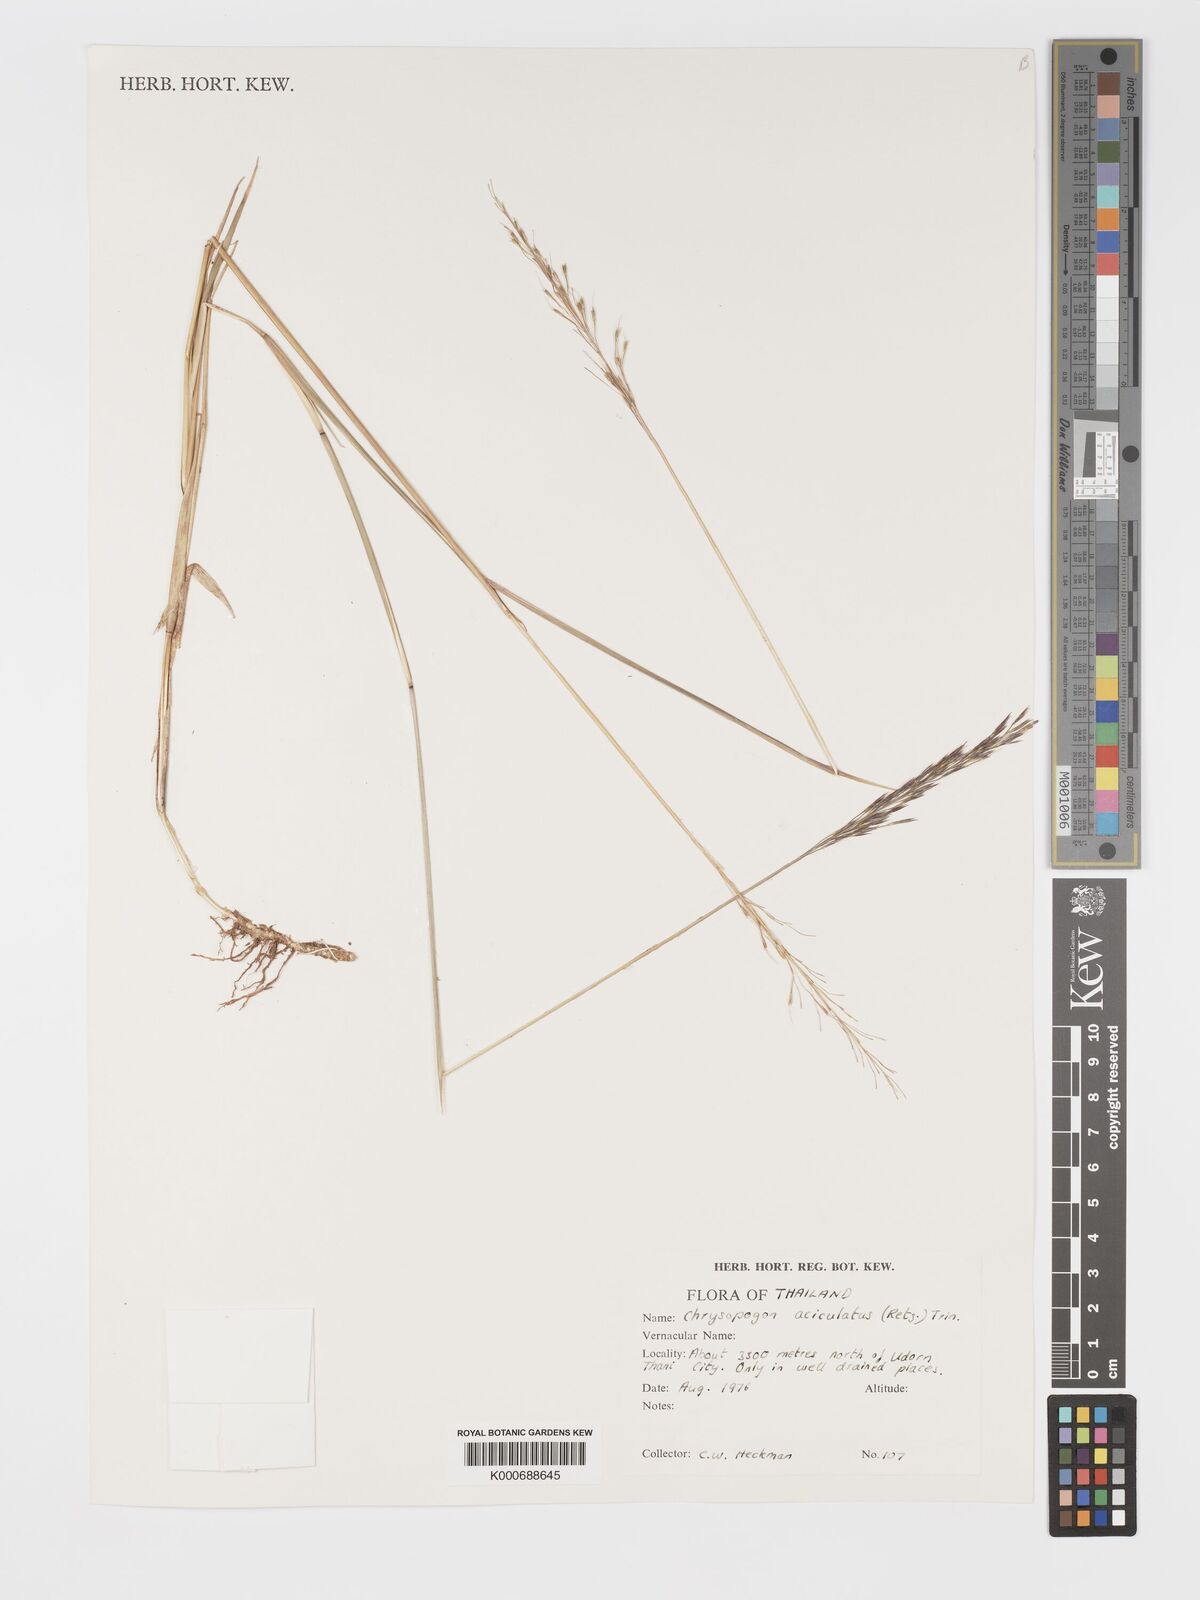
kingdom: Plantae
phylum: Tracheophyta
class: Liliopsida
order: Poales
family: Poaceae
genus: Chrysopogon
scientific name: Chrysopogon aciculatus
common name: Pilipiliula
